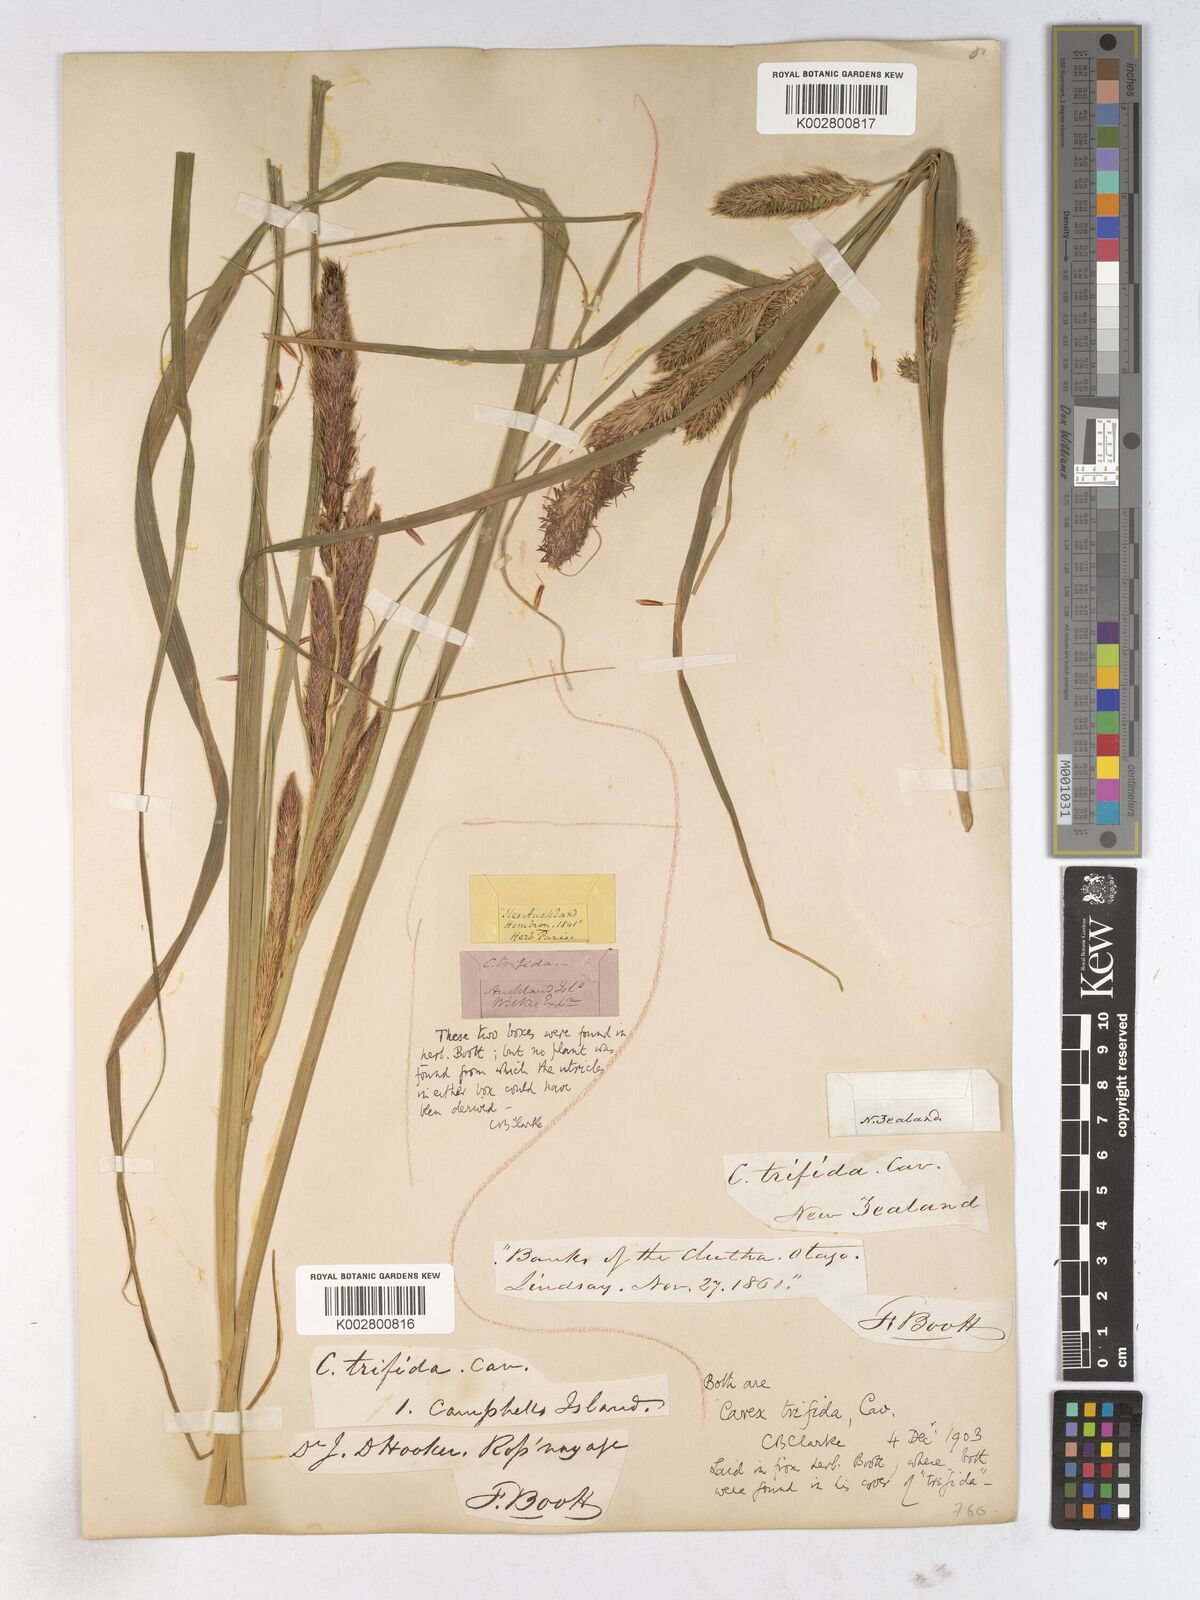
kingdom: Plantae
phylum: Tracheophyta
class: Liliopsida
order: Poales
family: Cyperaceae
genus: Carex
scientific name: Carex trifida
